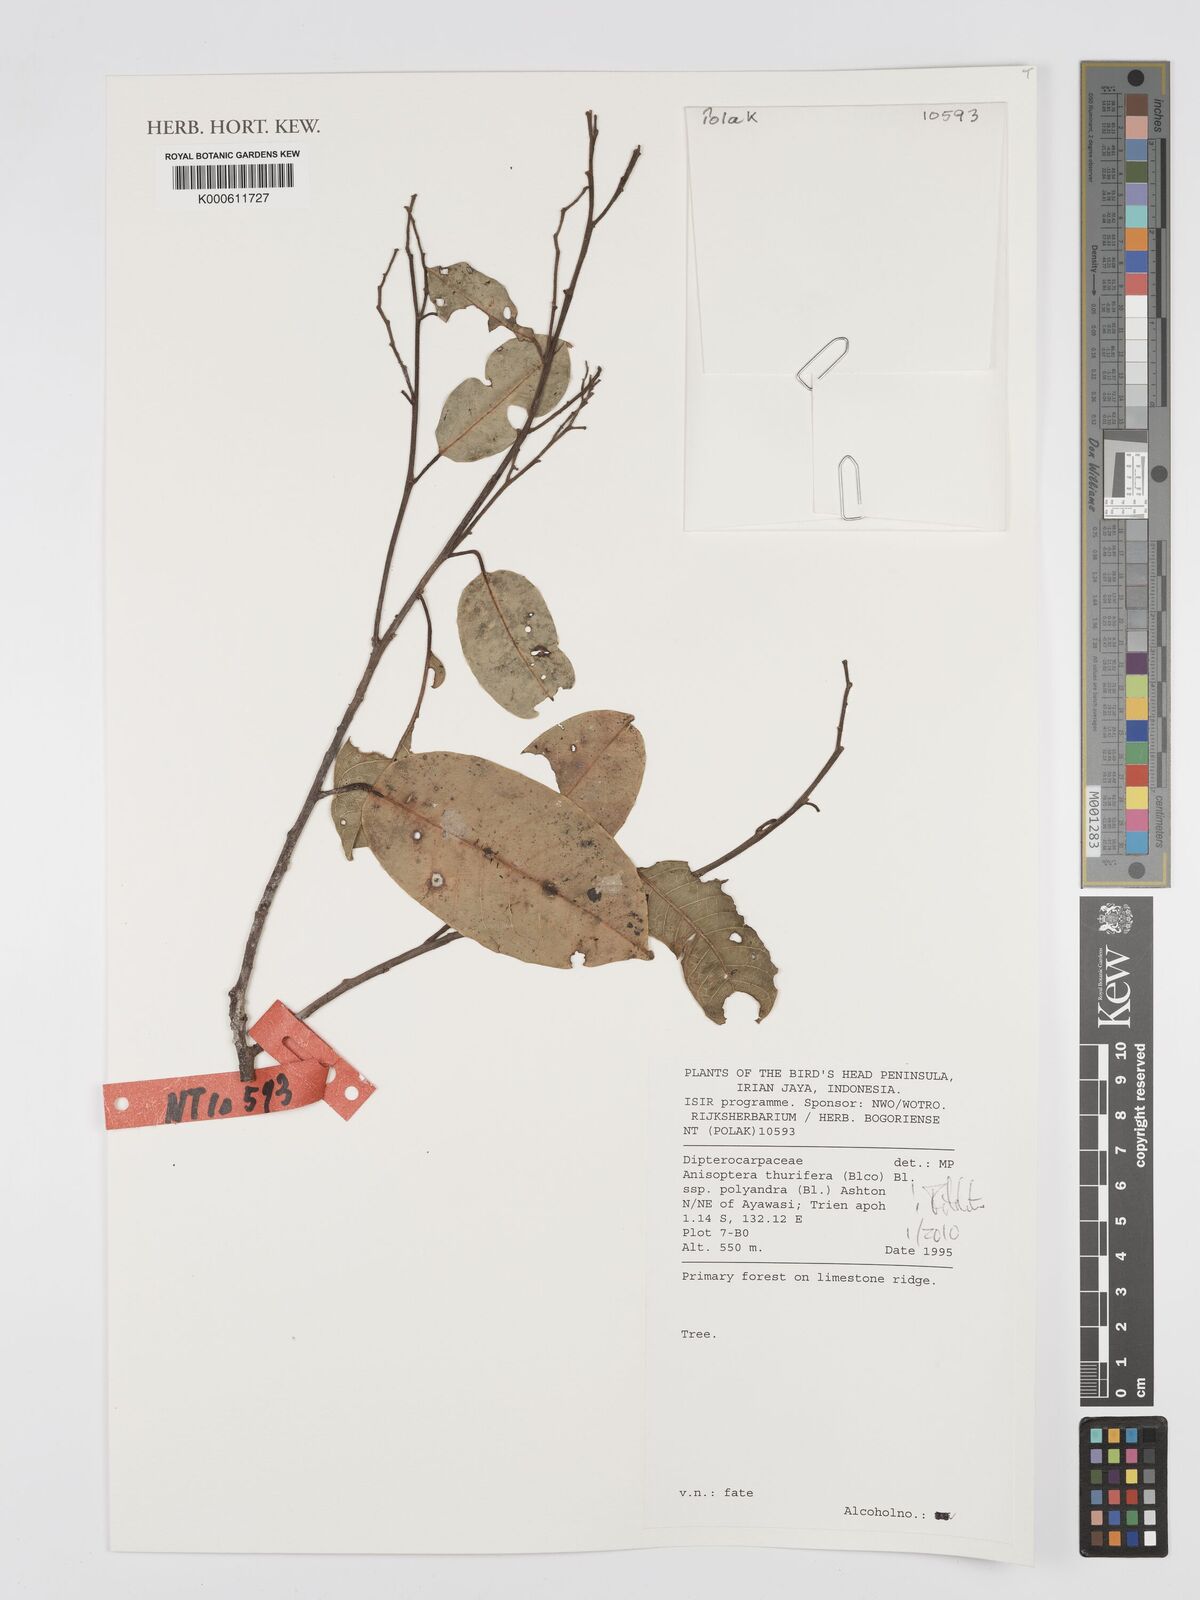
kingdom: Plantae
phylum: Tracheophyta
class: Magnoliopsida
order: Malvales
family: Dipterocarpaceae
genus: Anisoptera
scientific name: Anisoptera thurifera
